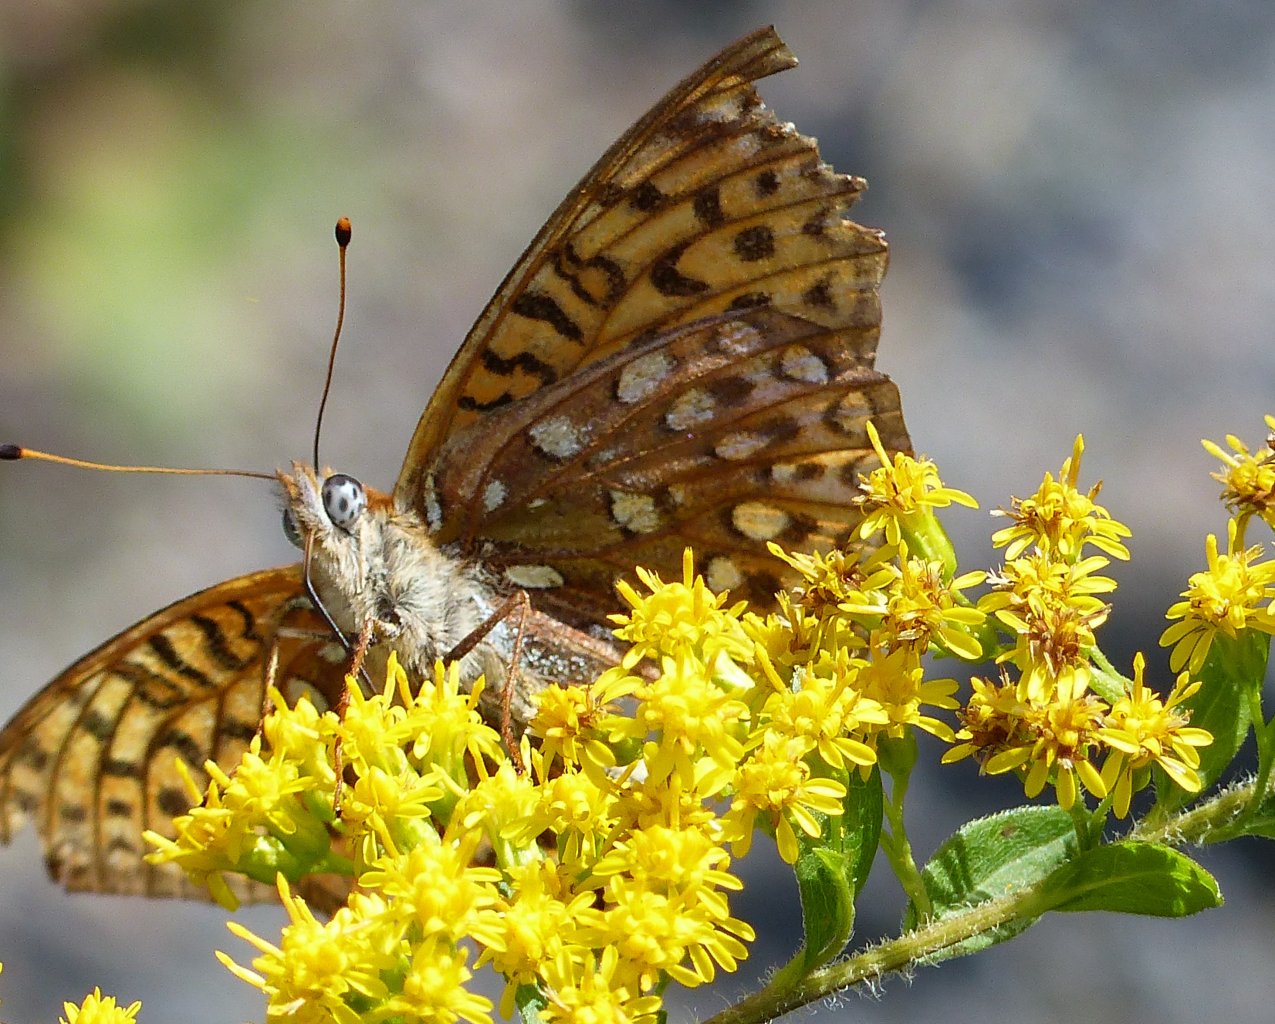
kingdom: Animalia
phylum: Arthropoda
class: Insecta
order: Lepidoptera
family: Nymphalidae
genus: Speyeria
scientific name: Speyeria atlantis
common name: Atlantis Fritillary
